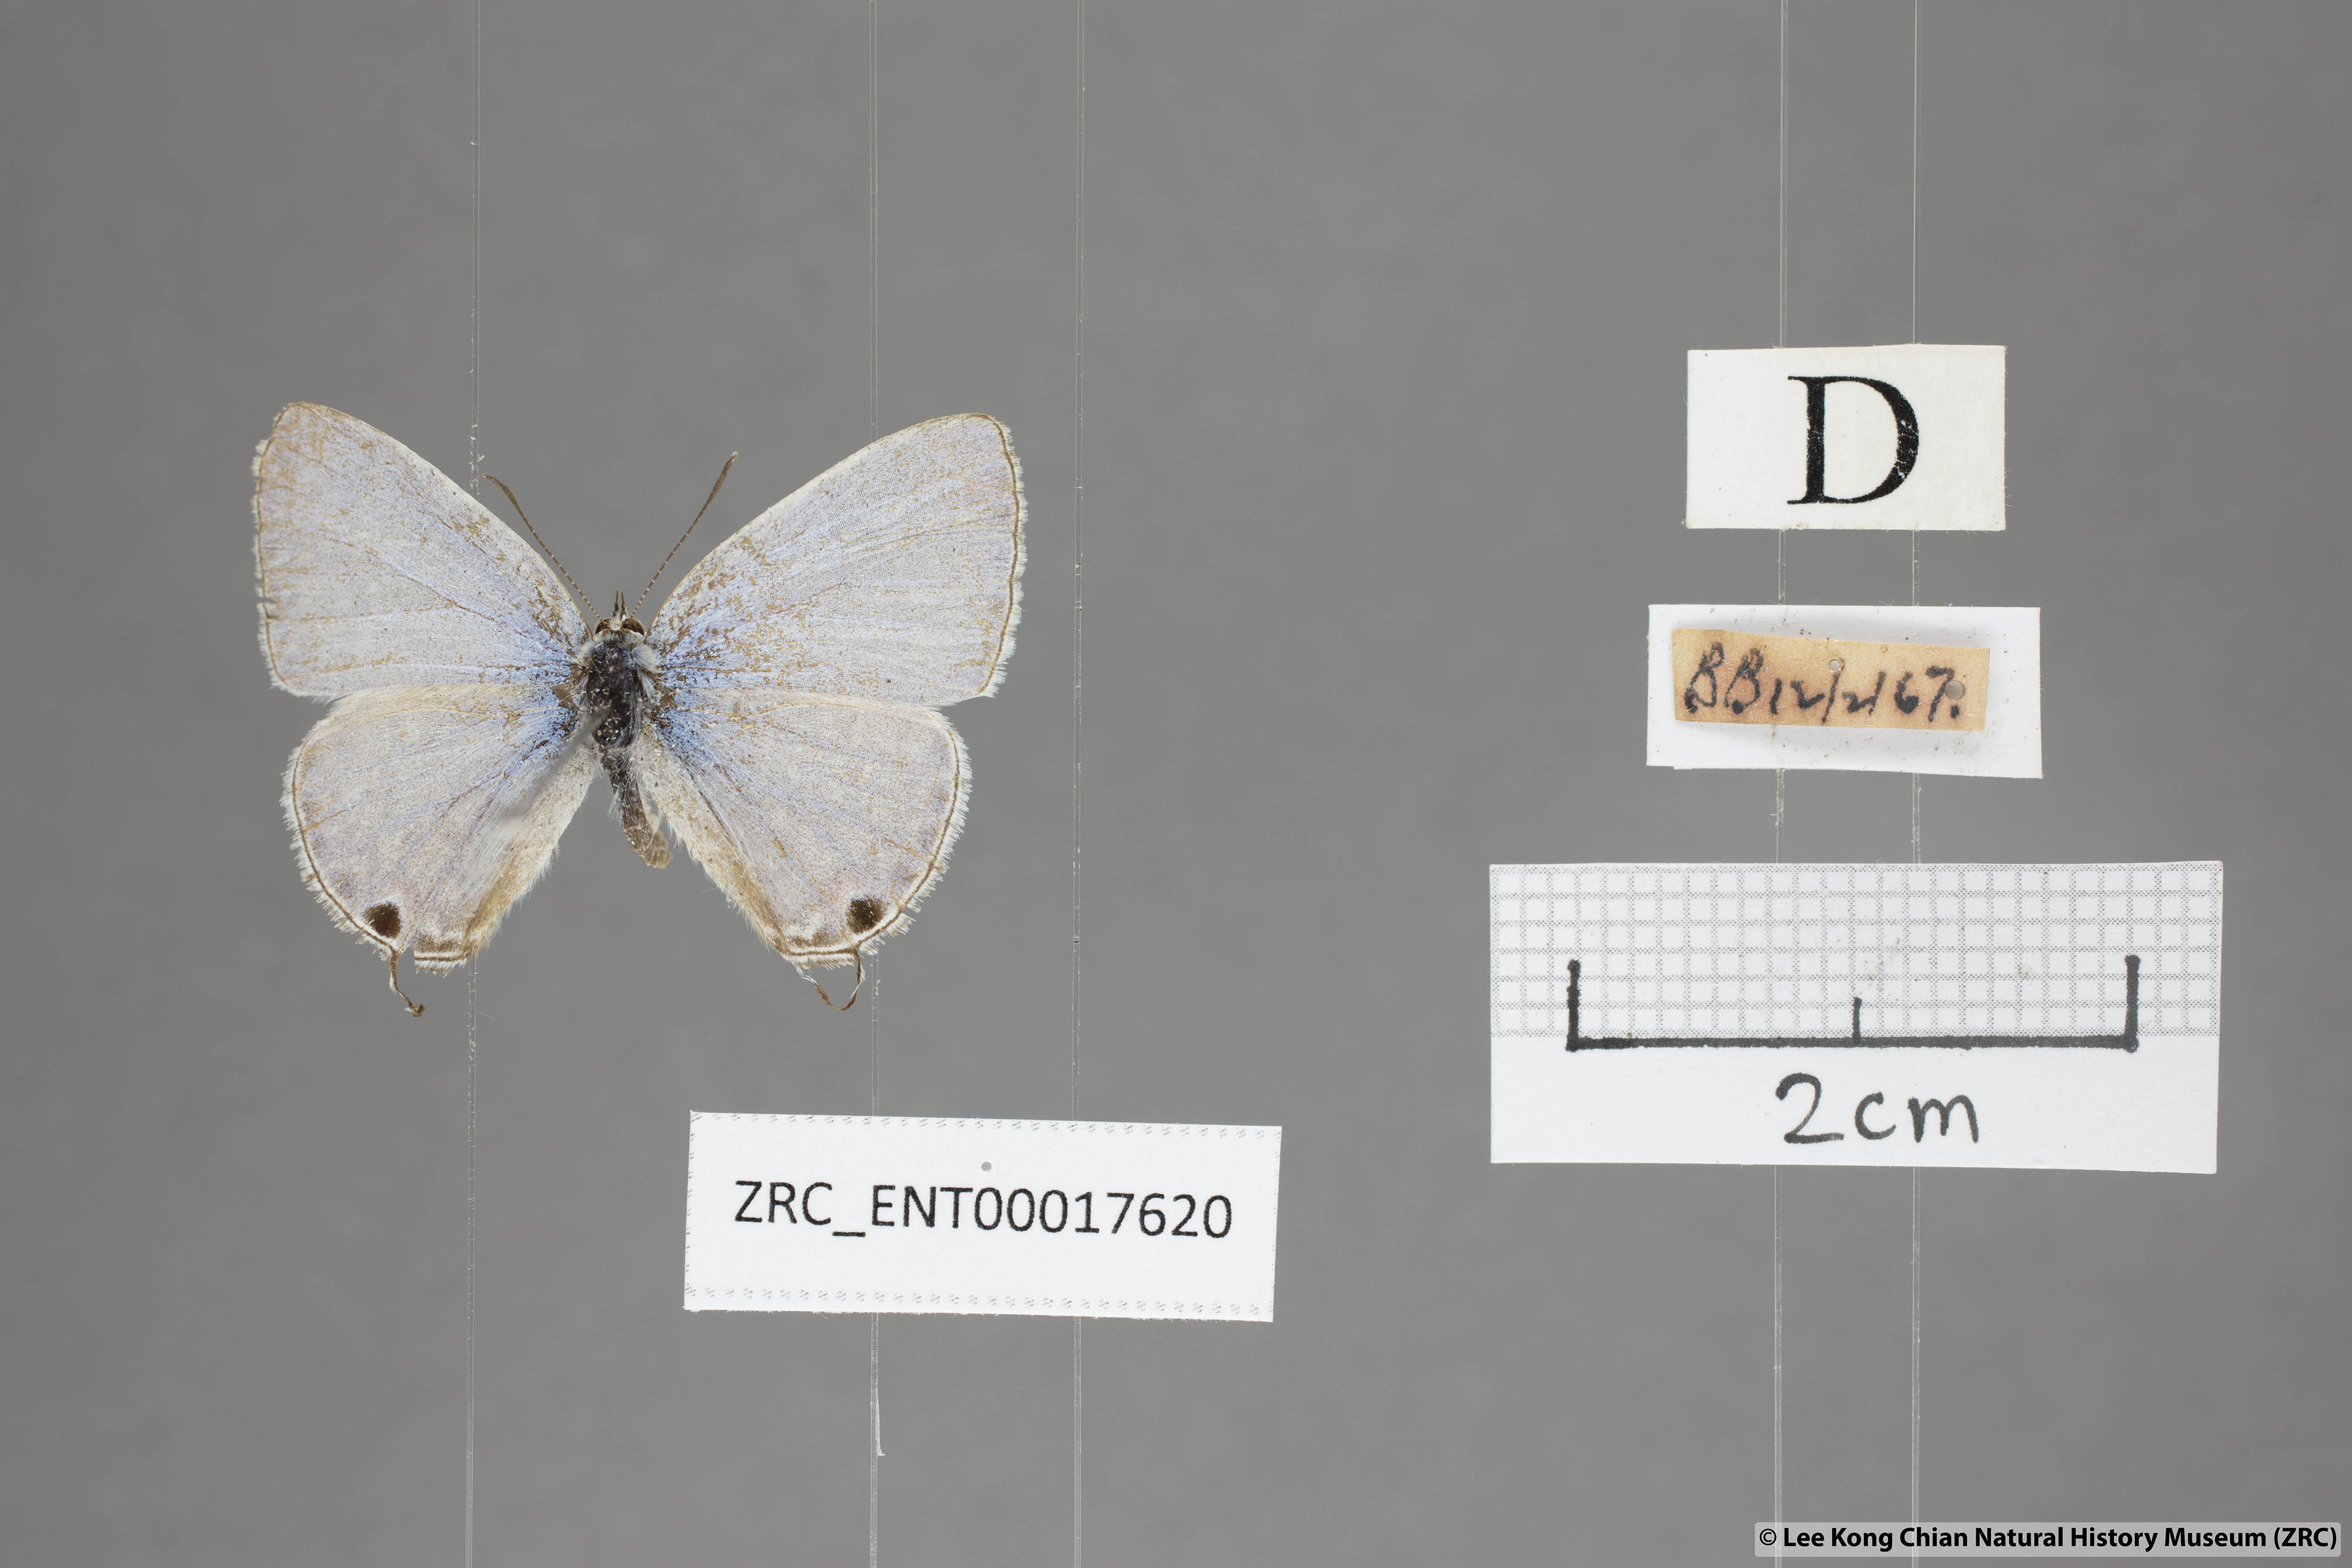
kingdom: Animalia
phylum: Arthropoda
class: Insecta
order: Lepidoptera
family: Lycaenidae
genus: Catochrysops
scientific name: Catochrysops panormus
